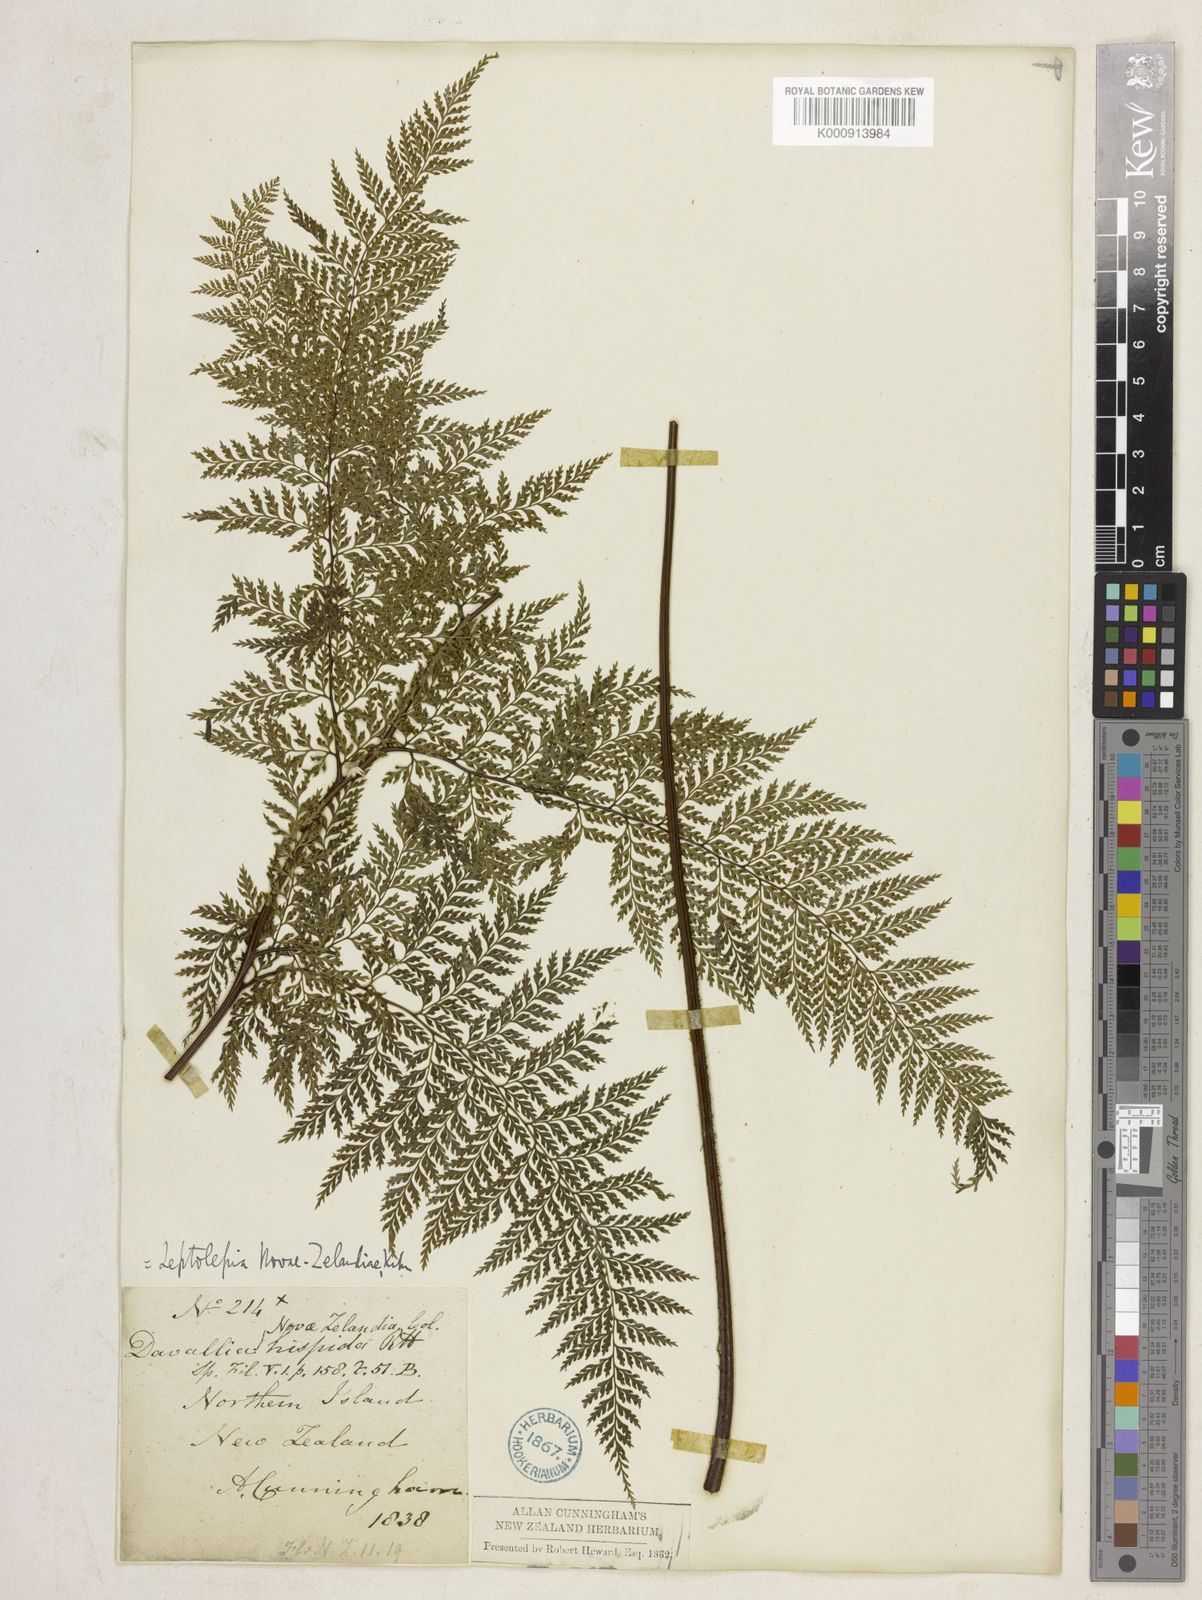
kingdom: Plantae
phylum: Tracheophyta
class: Polypodiopsida
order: Polypodiales
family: Dennstaedtiaceae
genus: Dennstaedtia
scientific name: Dennstaedtia novae-zelandiae
